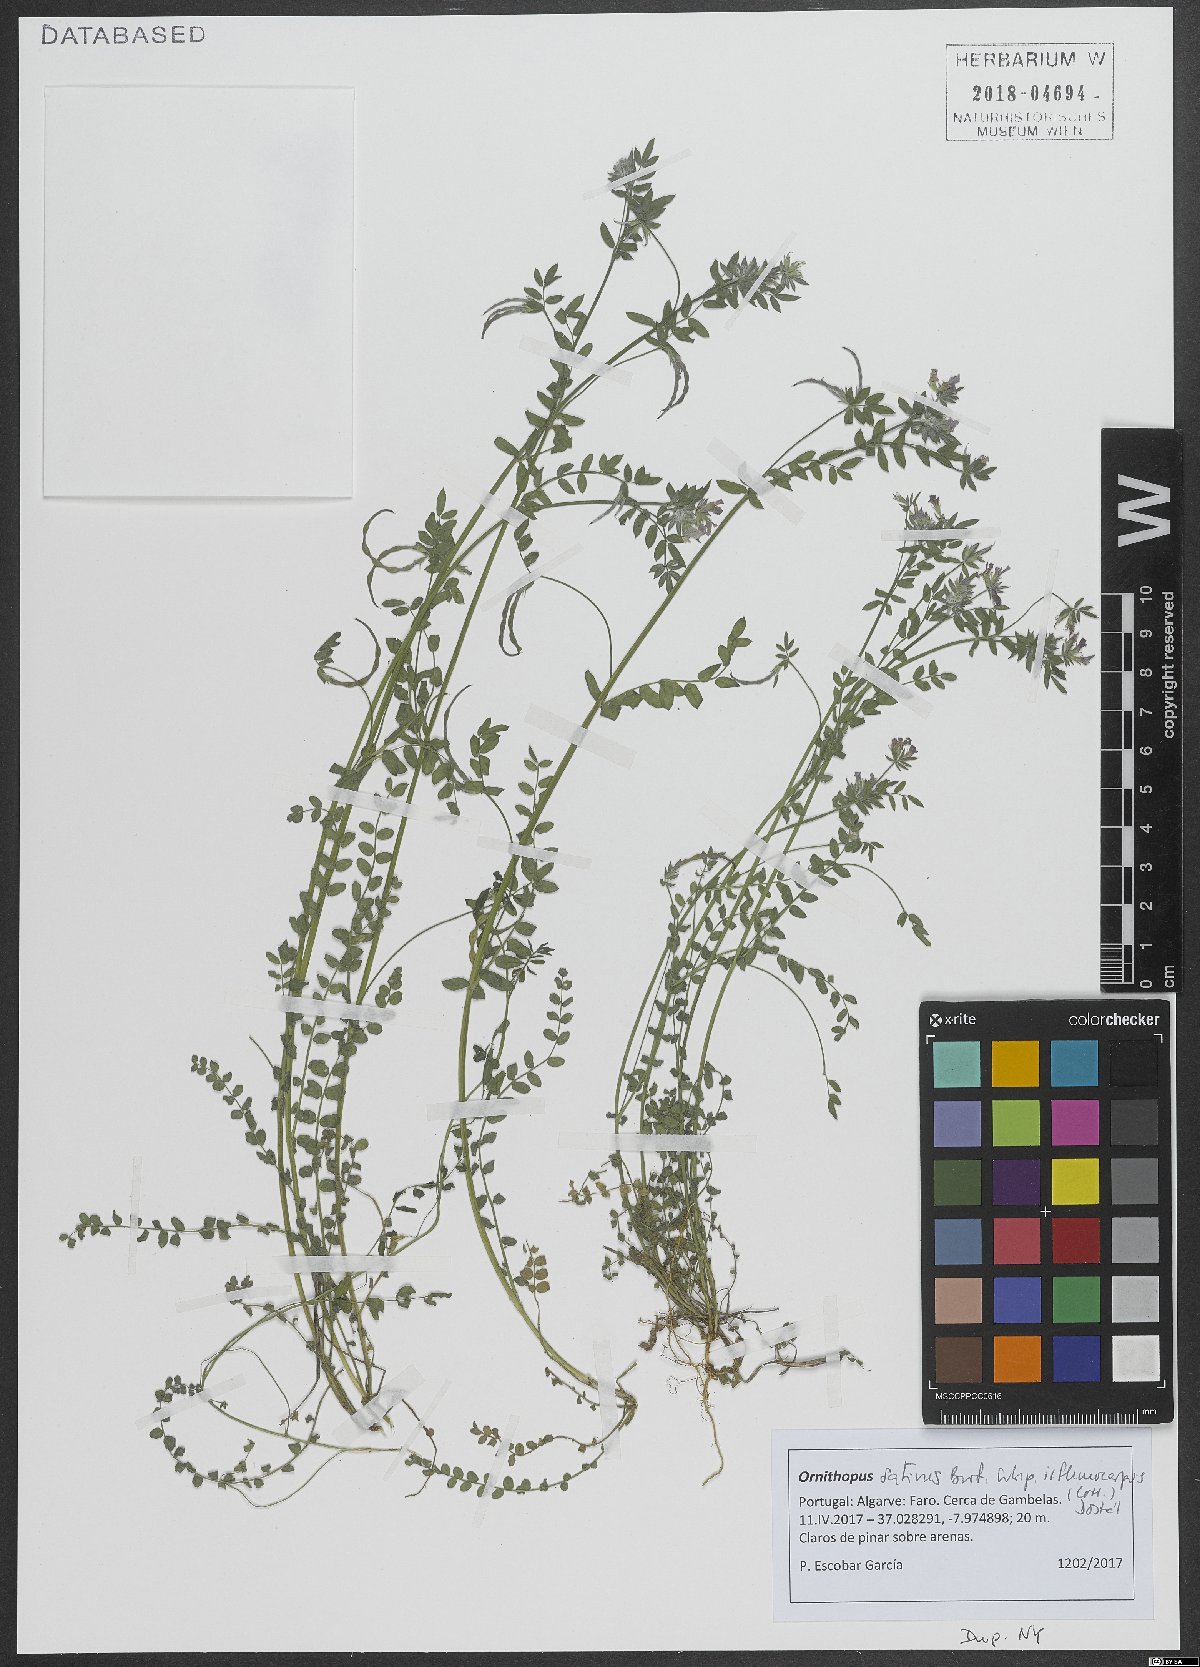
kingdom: Plantae
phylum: Tracheophyta
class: Magnoliopsida
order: Fabales
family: Fabaceae
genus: Ornithopus
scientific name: Ornithopus sativus
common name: Serradella
